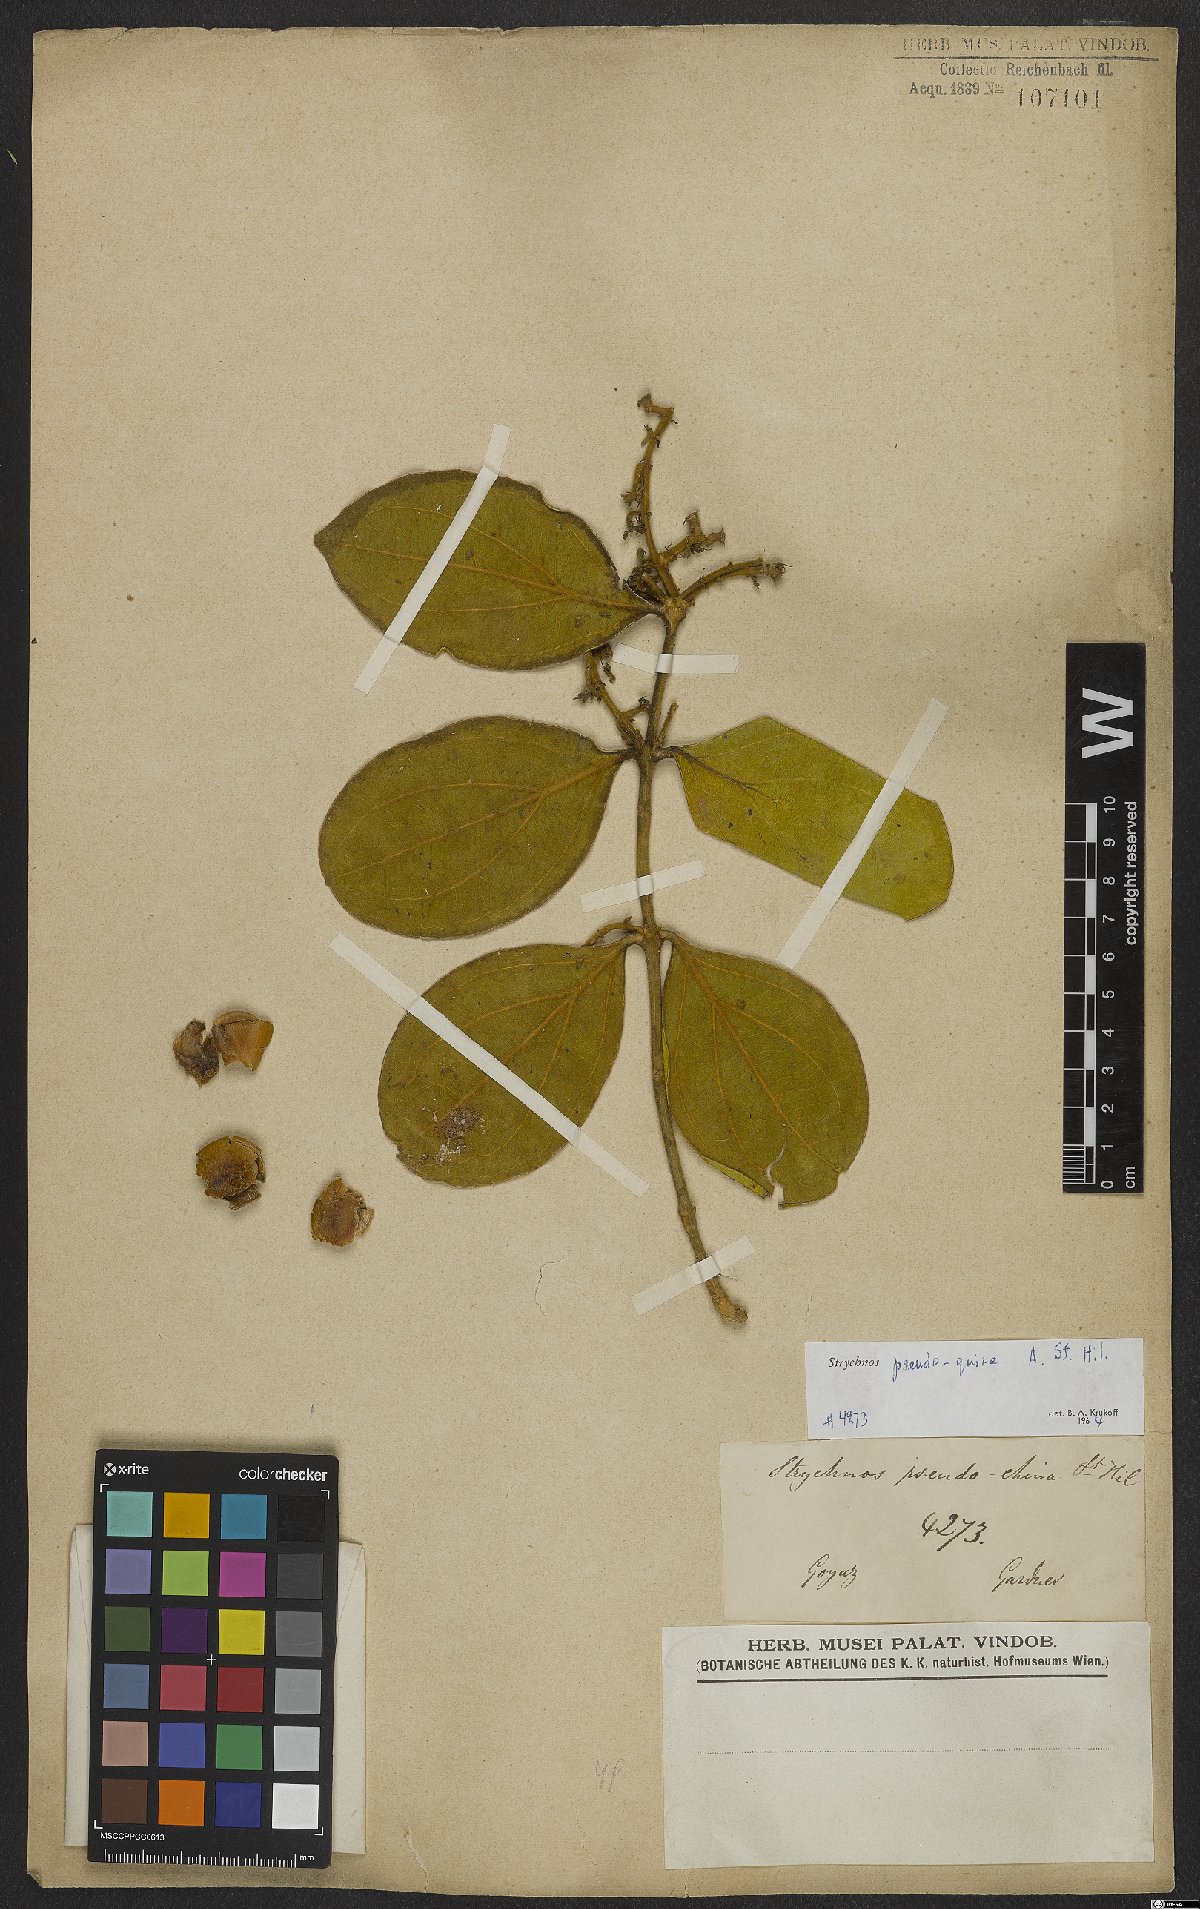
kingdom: Plantae
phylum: Tracheophyta
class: Magnoliopsida
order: Gentianales
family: Loganiaceae
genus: Strychnos
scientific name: Strychnos pseudoquina
